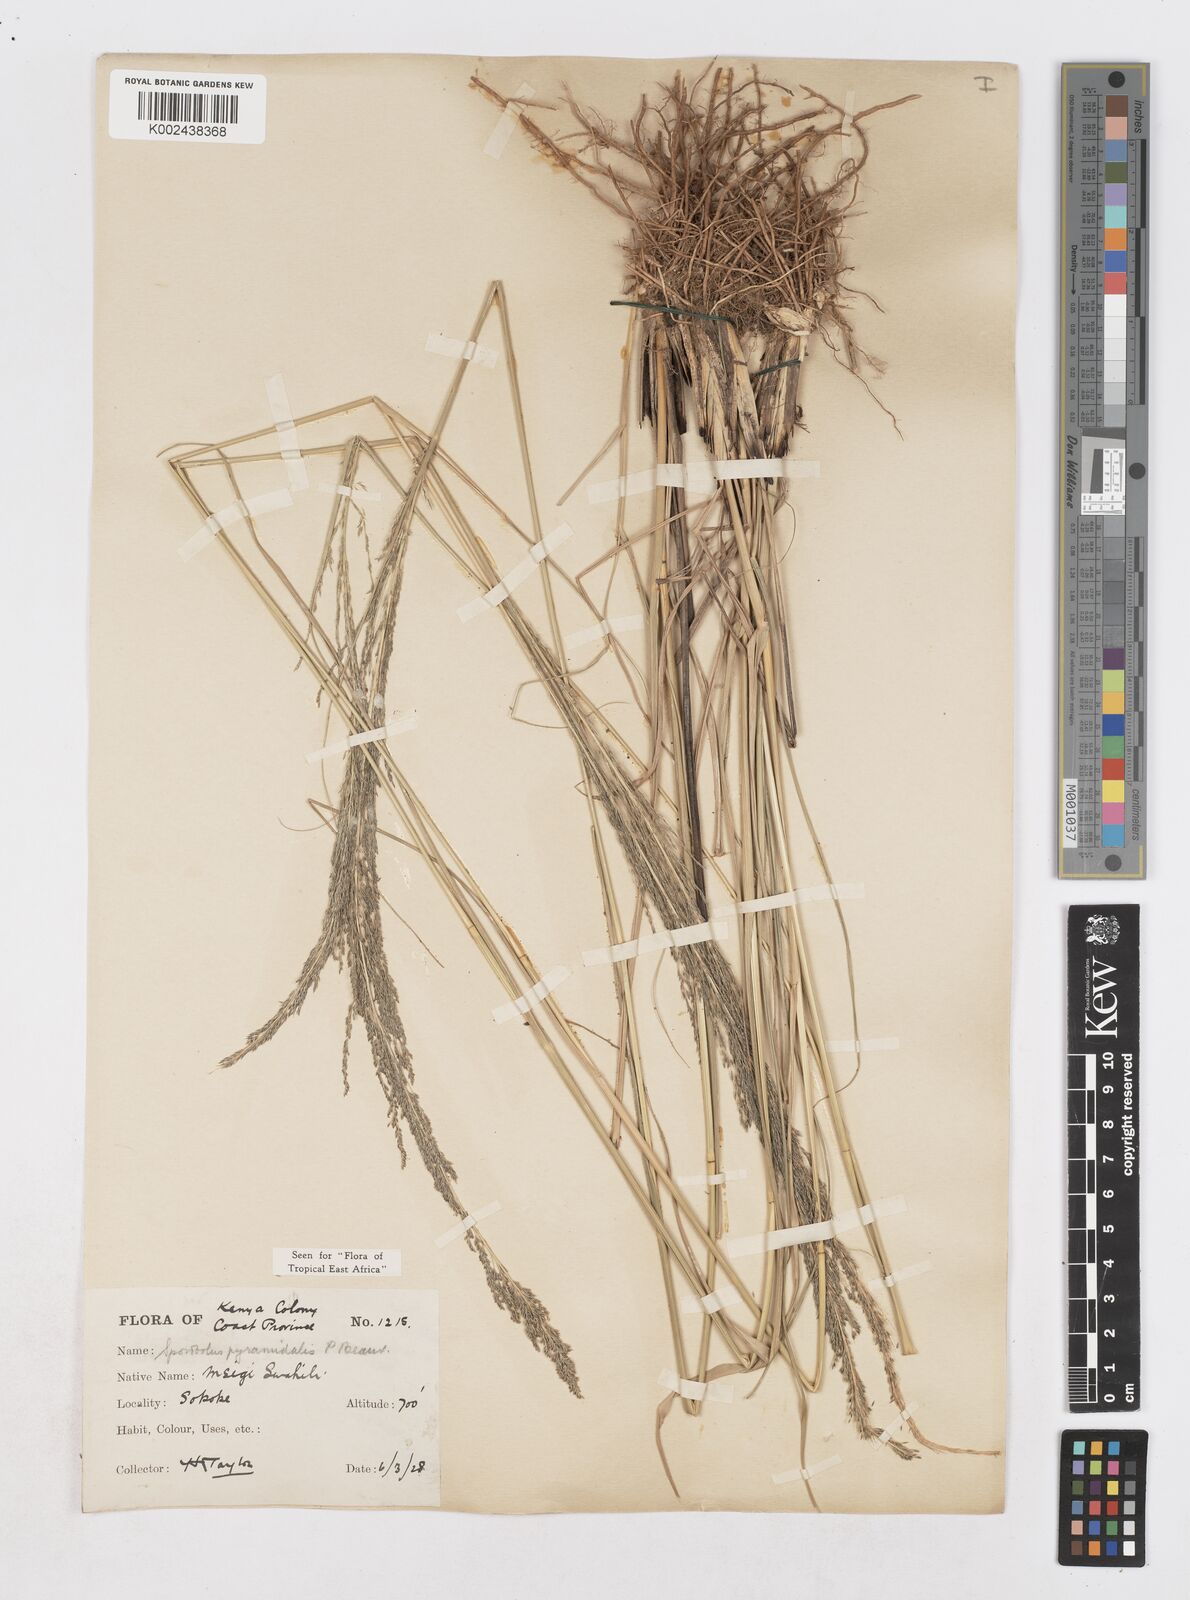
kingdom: Plantae
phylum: Tracheophyta
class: Liliopsida
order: Poales
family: Poaceae
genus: Sporobolus
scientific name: Sporobolus pyramidalis
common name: West indian dropseed
